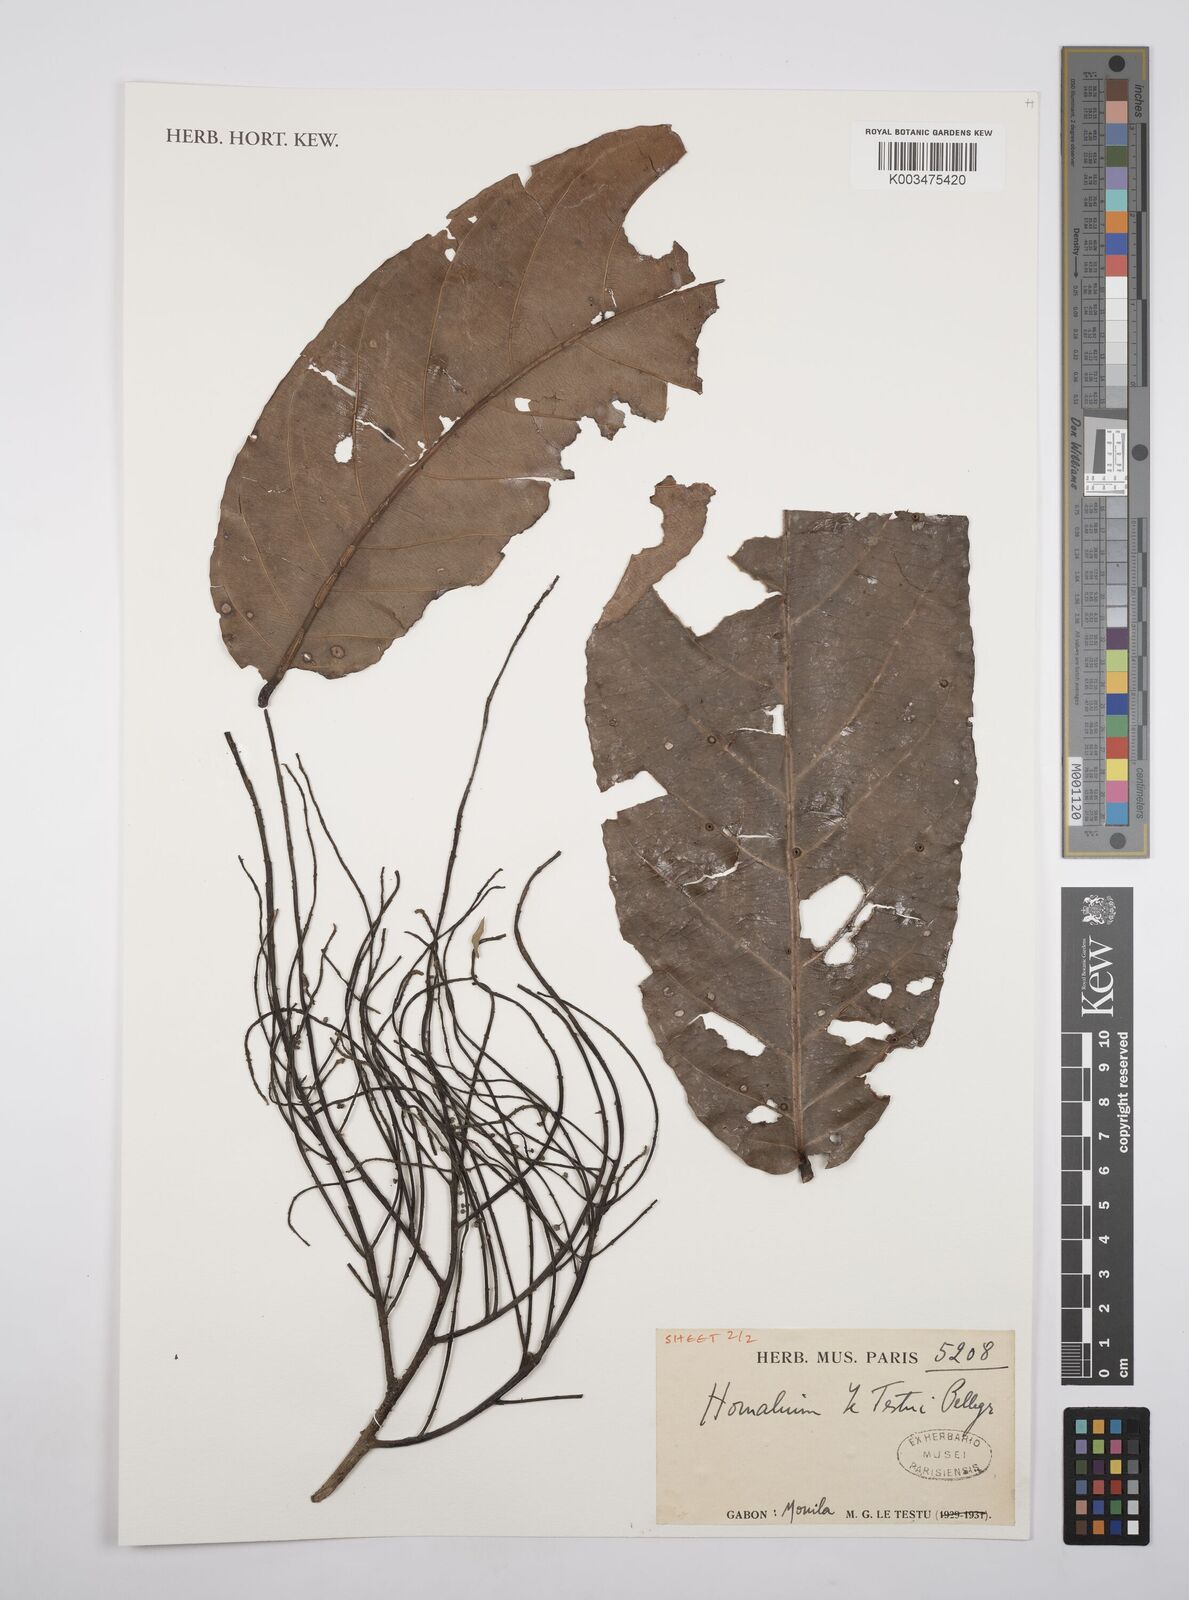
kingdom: Plantae
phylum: Tracheophyta
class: Magnoliopsida
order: Malpighiales
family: Salicaceae
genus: Homalium
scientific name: Homalium letestui
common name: African homalium
